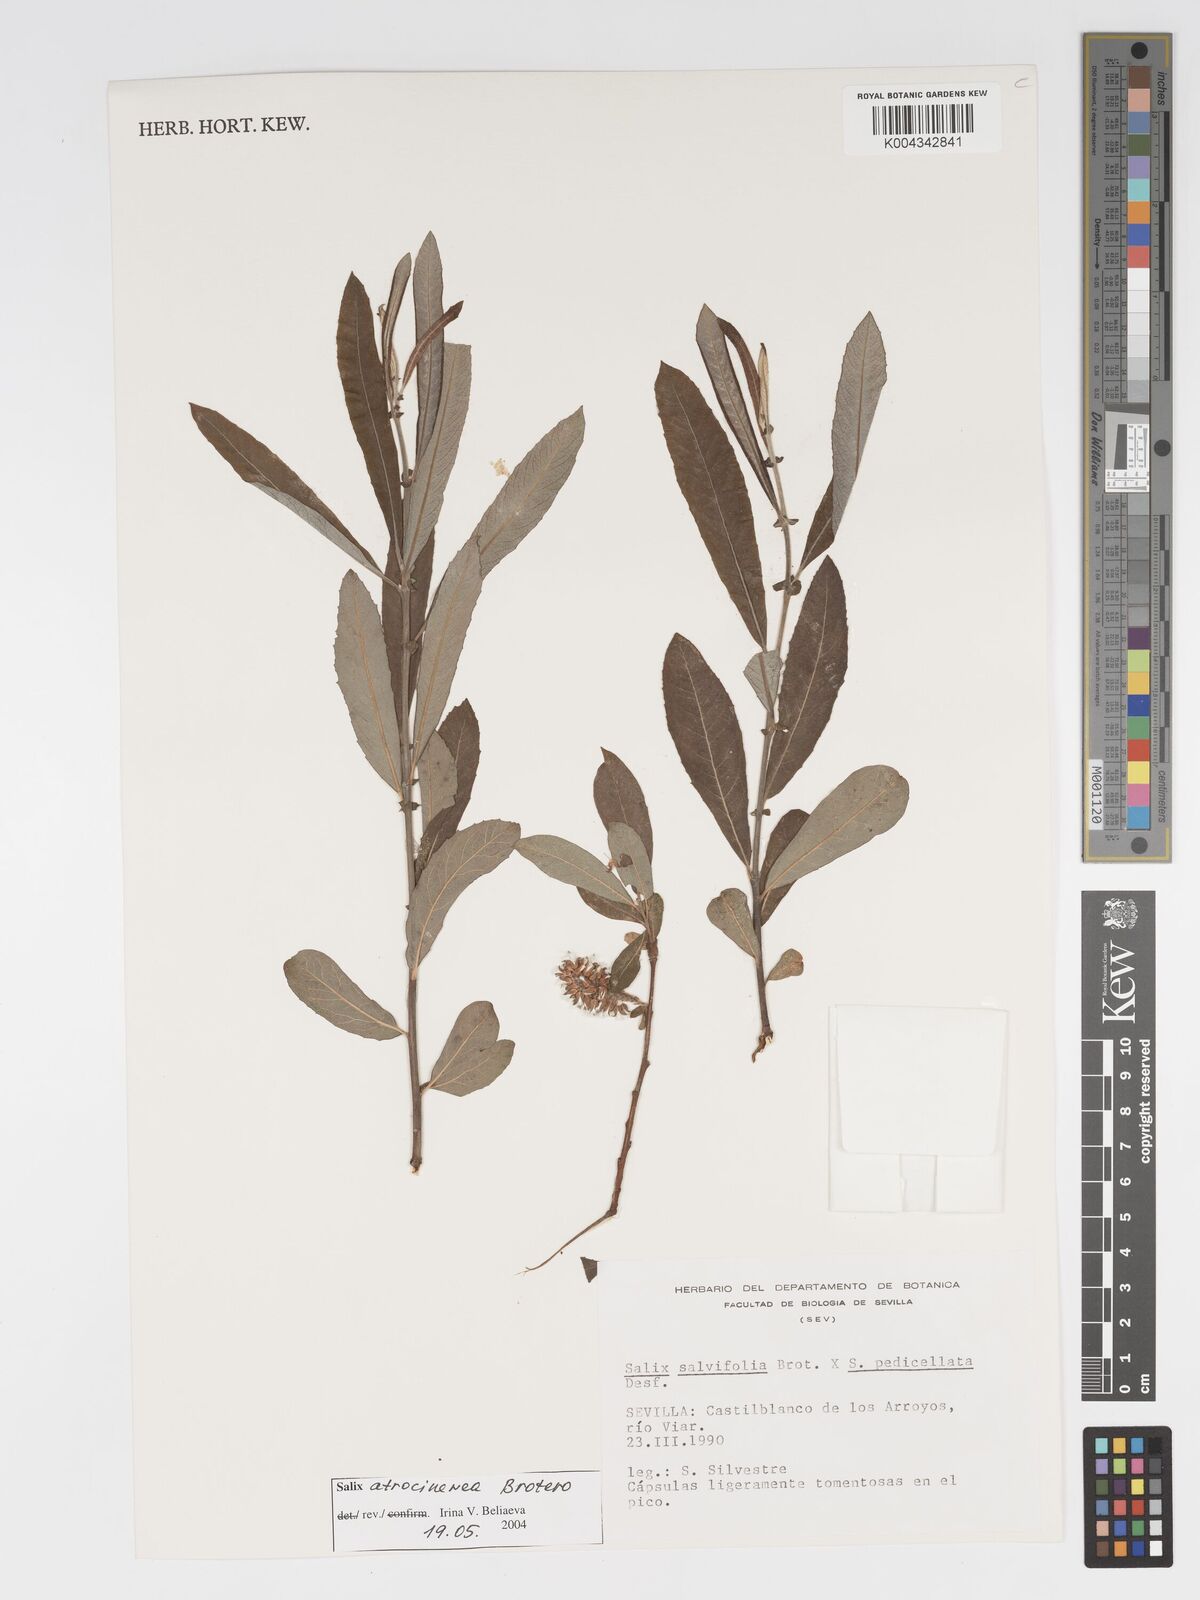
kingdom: Plantae
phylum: Tracheophyta
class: Magnoliopsida
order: Malpighiales
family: Salicaceae
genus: Salix
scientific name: Salix
